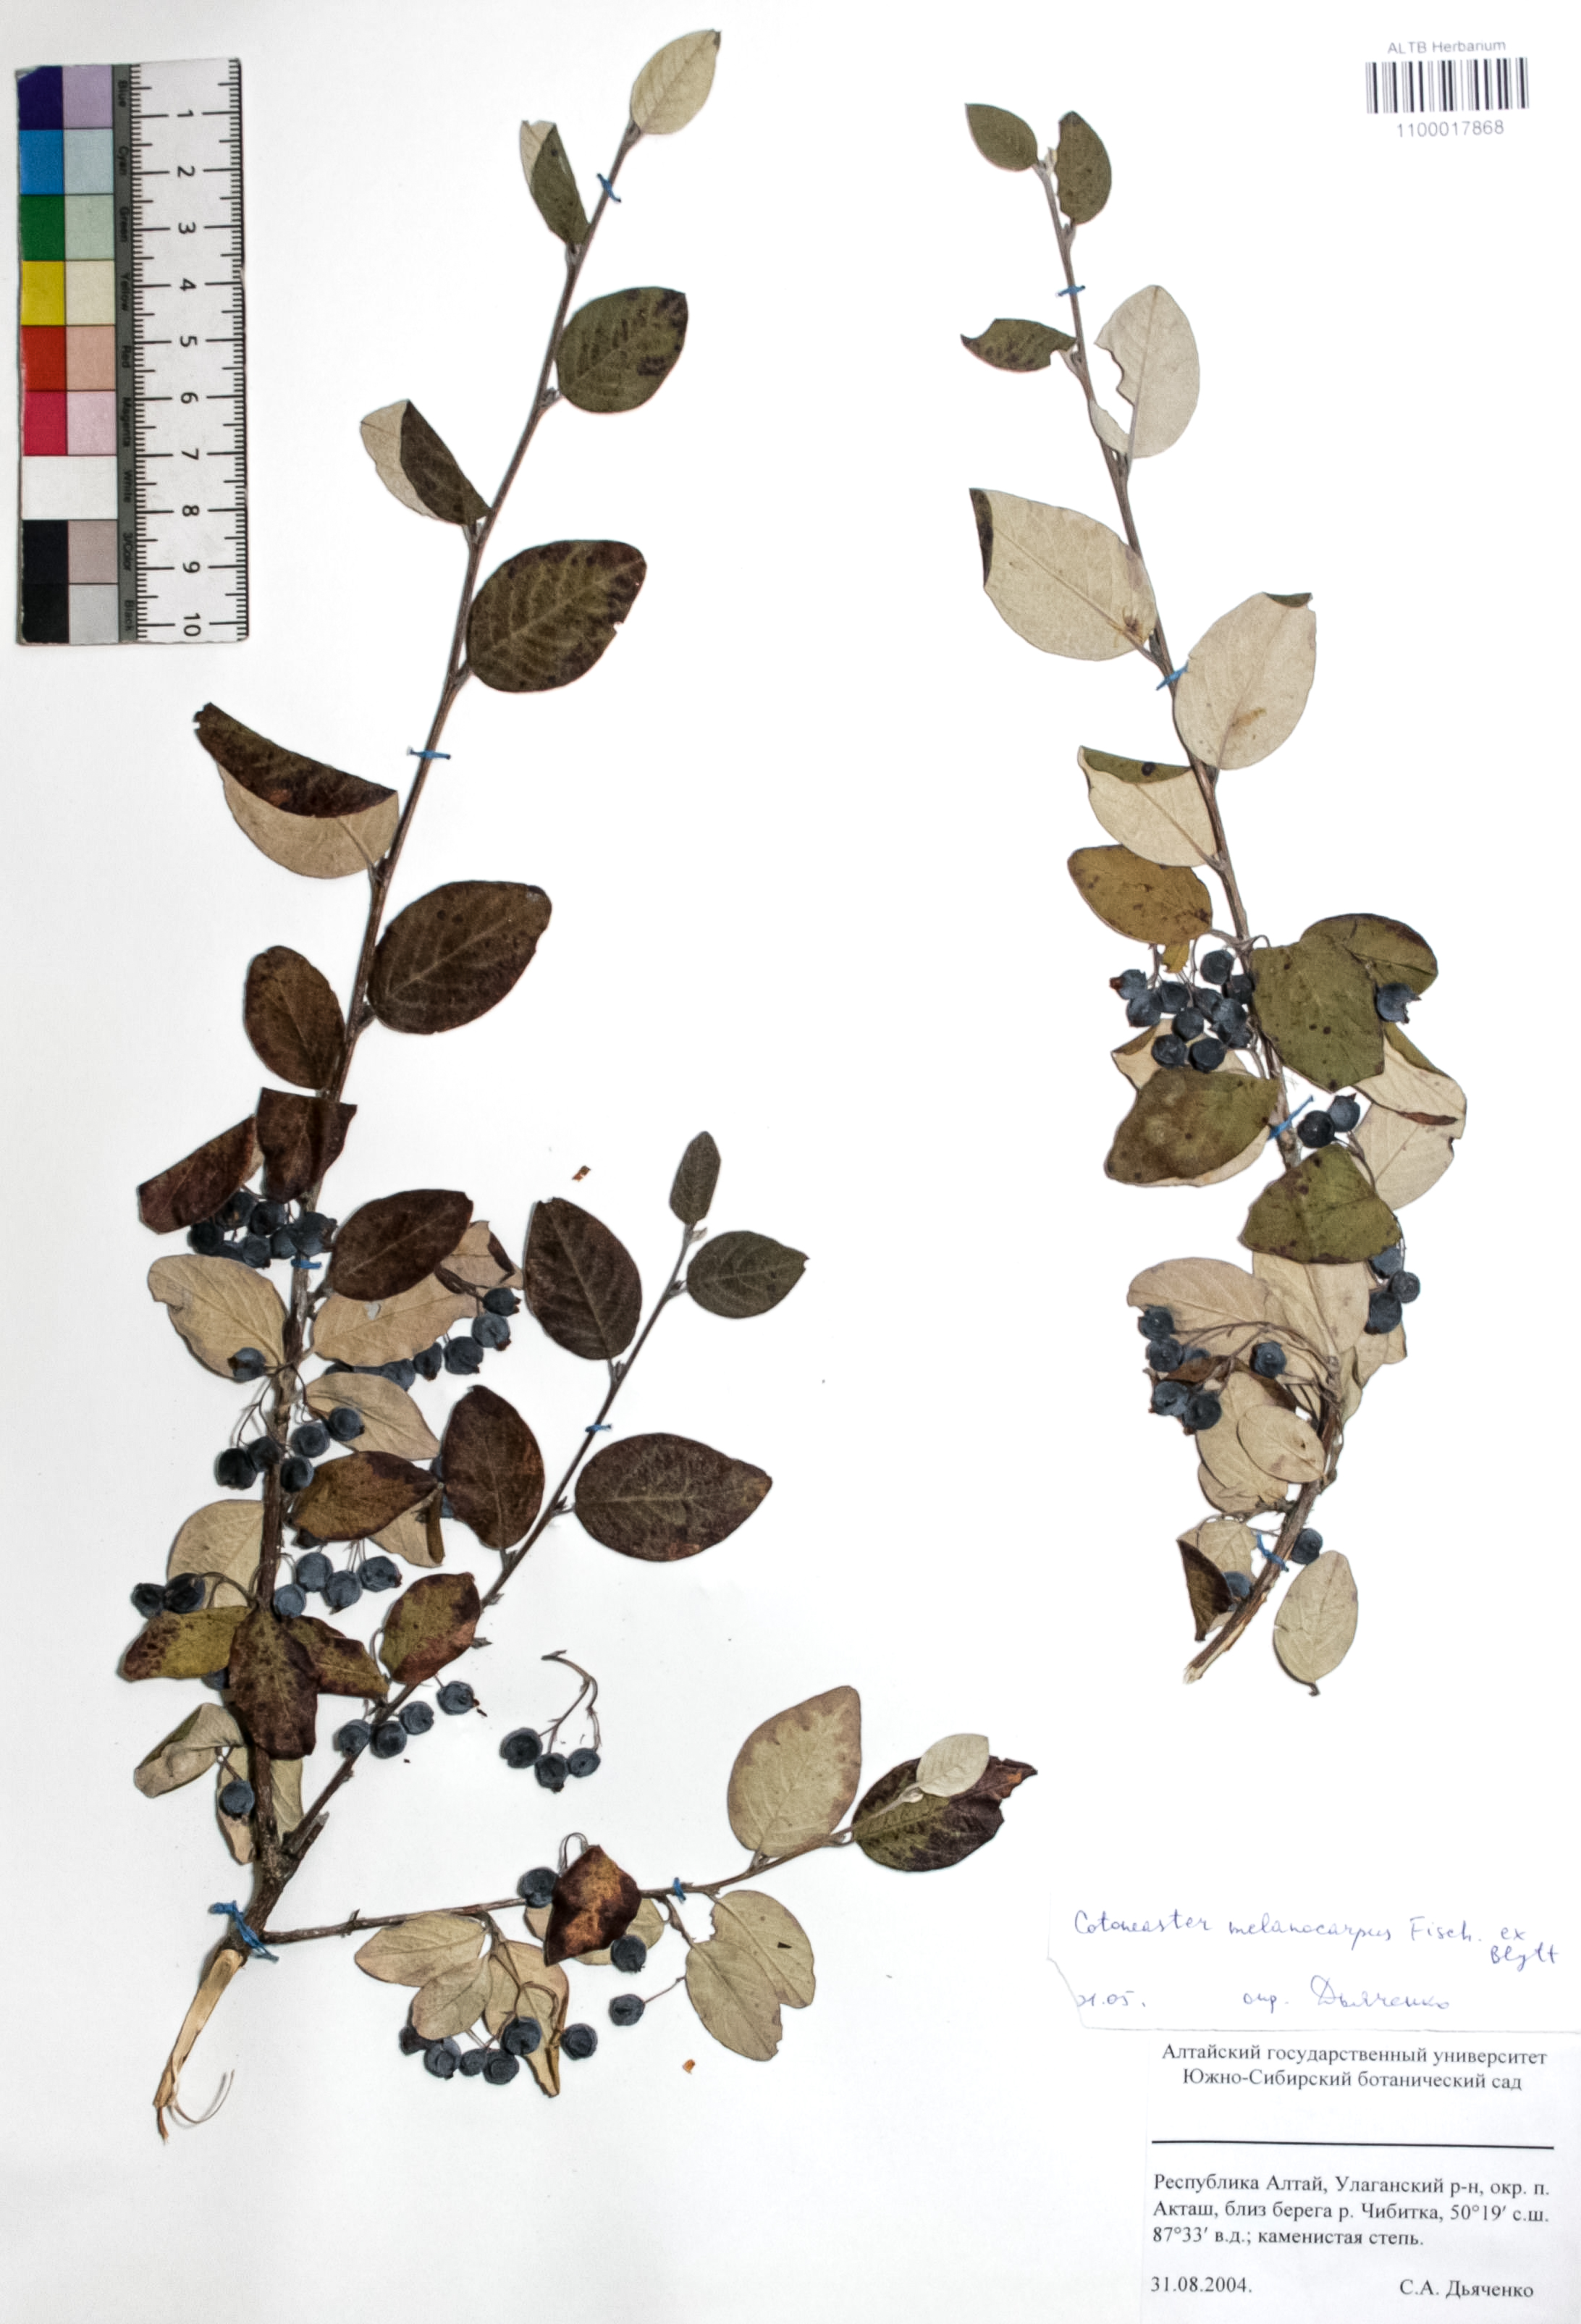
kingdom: Plantae
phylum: Tracheophyta
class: Magnoliopsida
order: Rosales
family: Rosaceae
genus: Cotoneaster
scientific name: Cotoneaster niger
